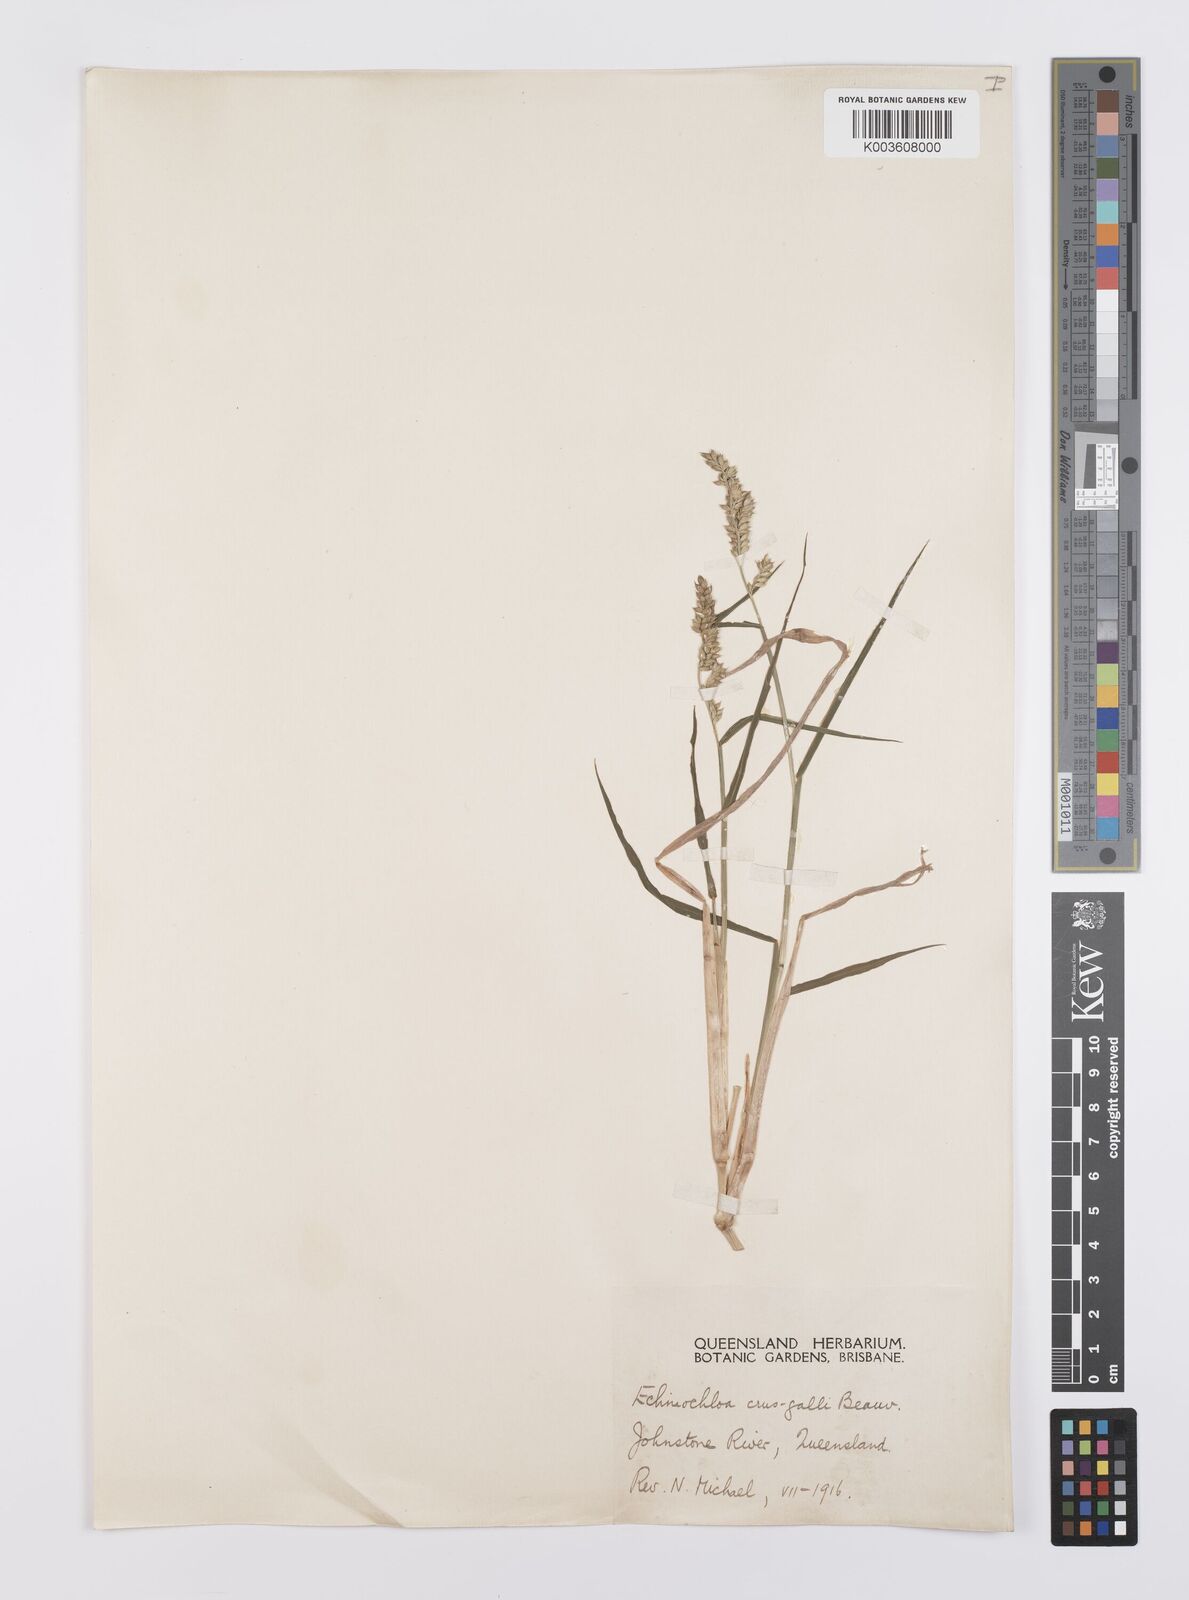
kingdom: Plantae
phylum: Tracheophyta
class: Liliopsida
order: Poales
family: Poaceae
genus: Echinochloa
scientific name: Echinochloa crus-galli
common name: Cockspur
